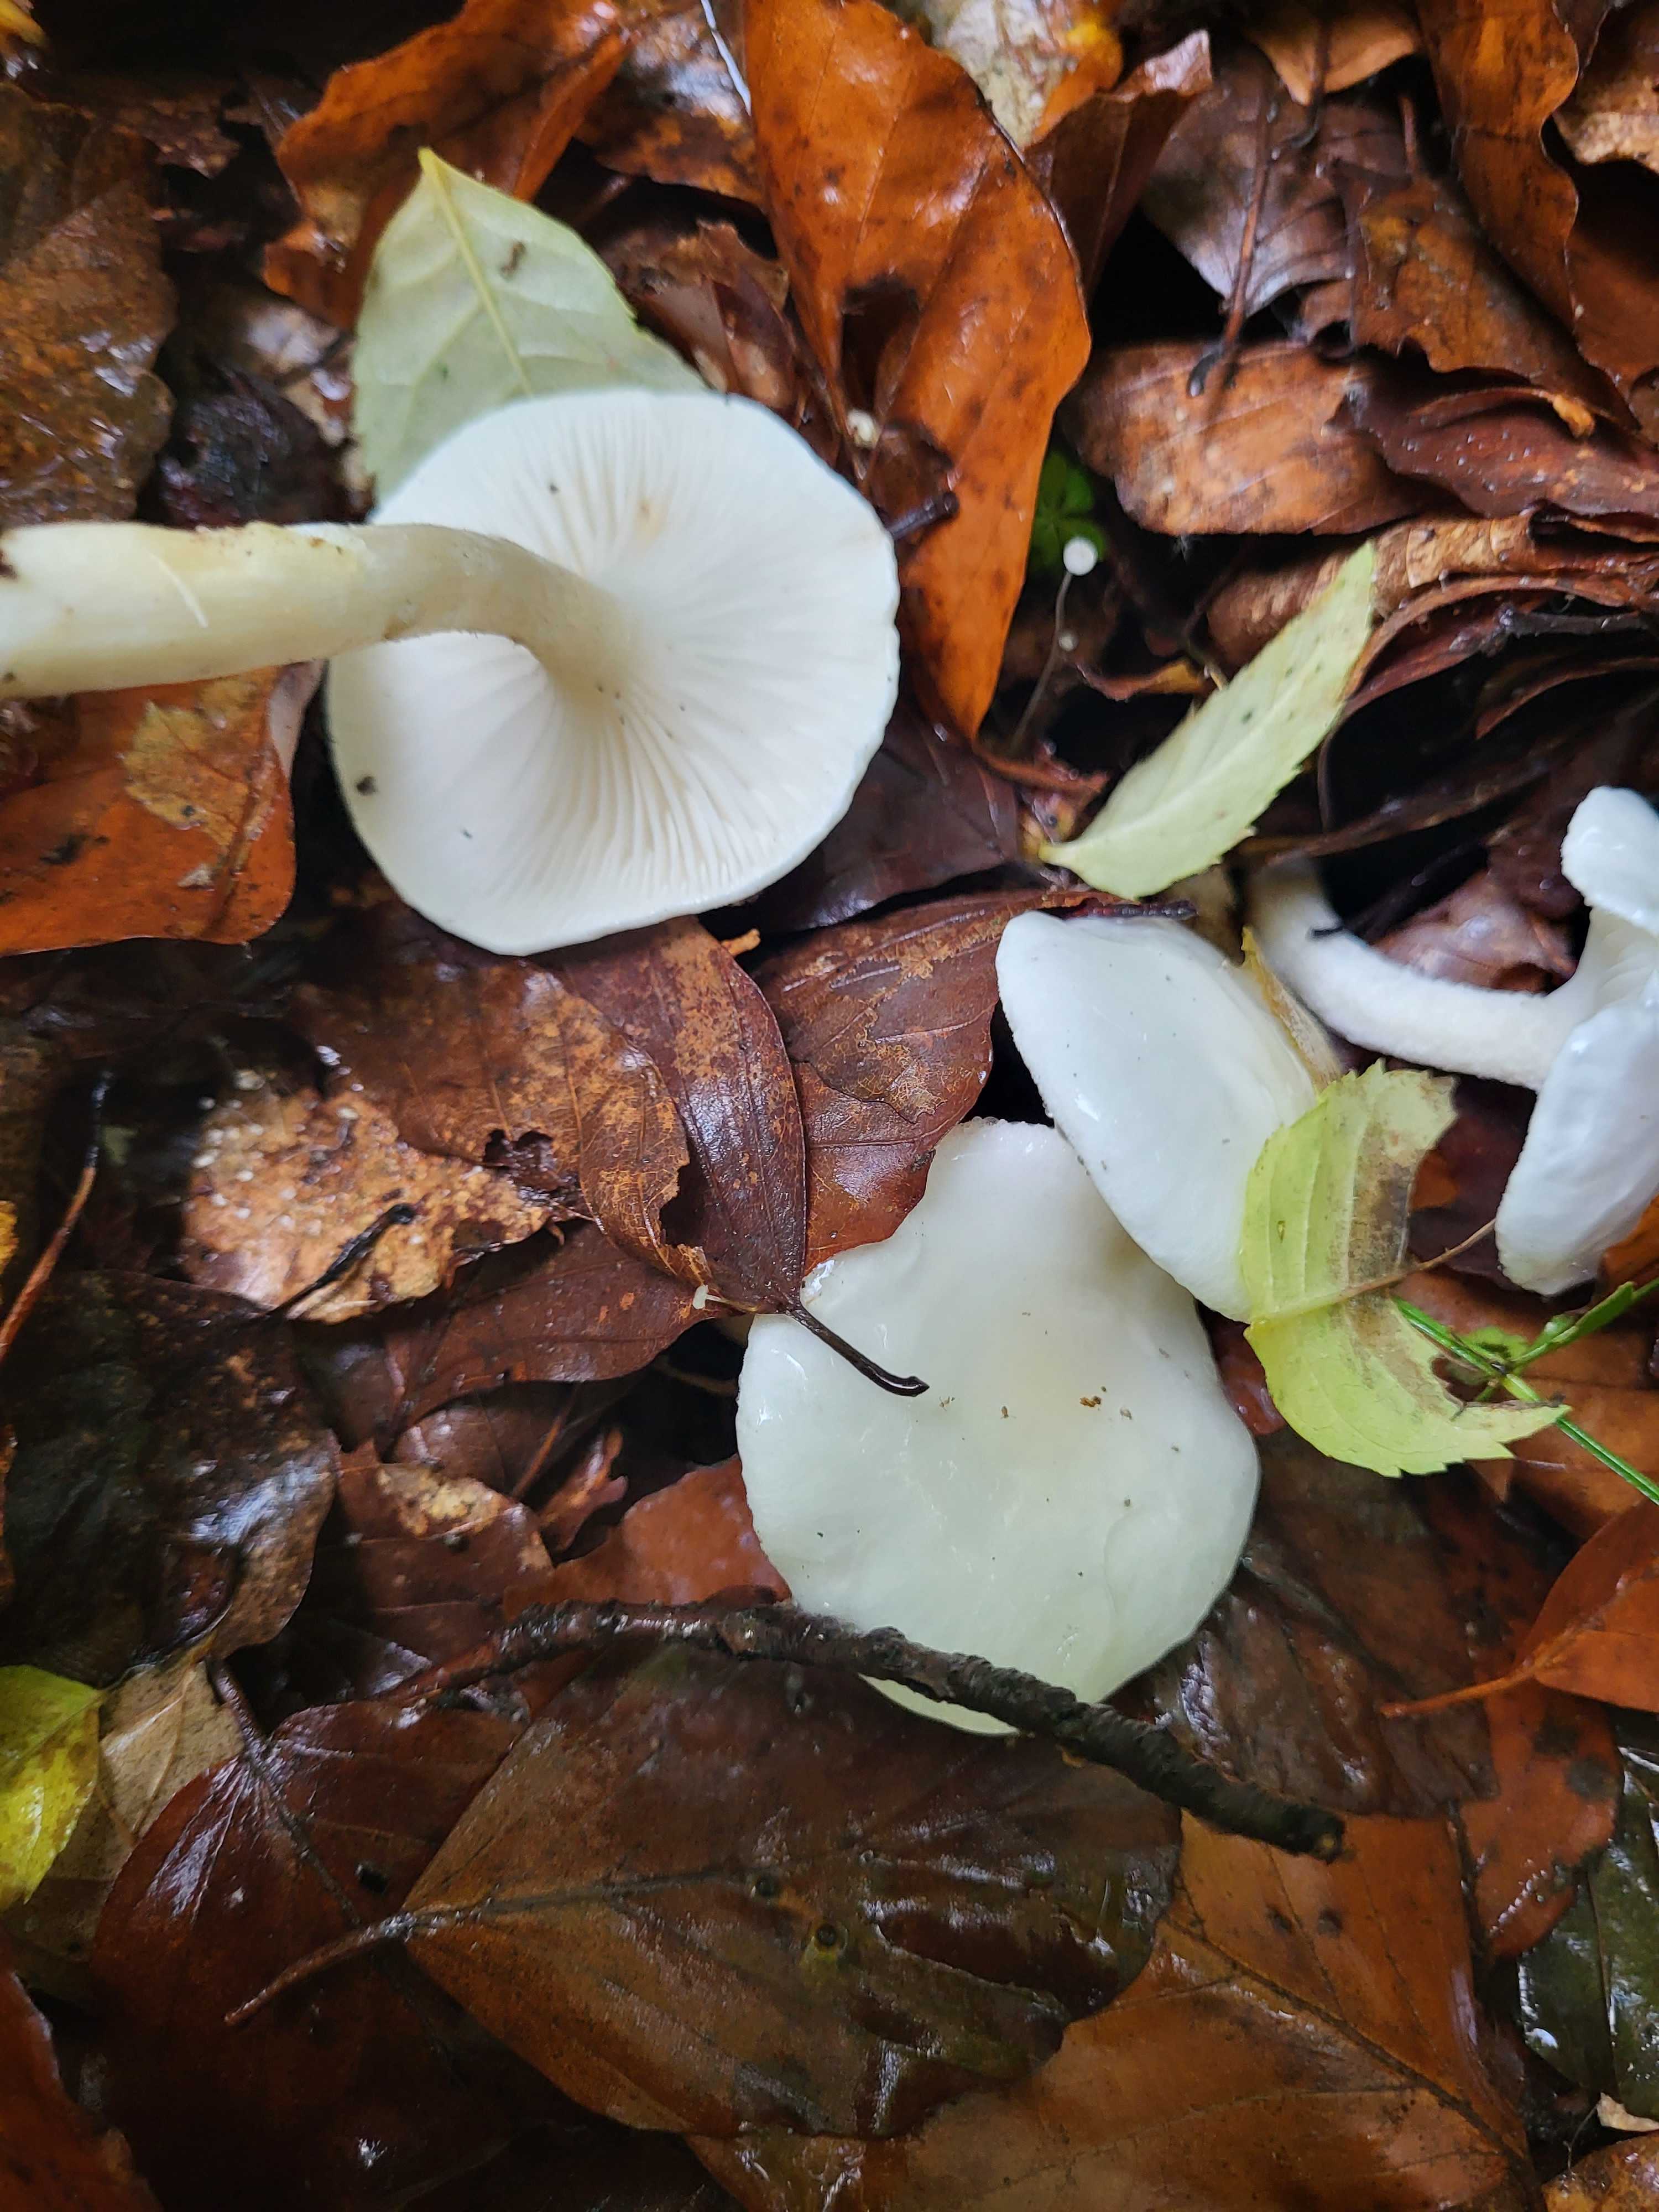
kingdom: Fungi
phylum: Basidiomycota
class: Agaricomycetes
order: Agaricales
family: Hygrophoraceae
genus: Hygrophorus
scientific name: Hygrophorus eburneus
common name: elfenbens-sneglehat
